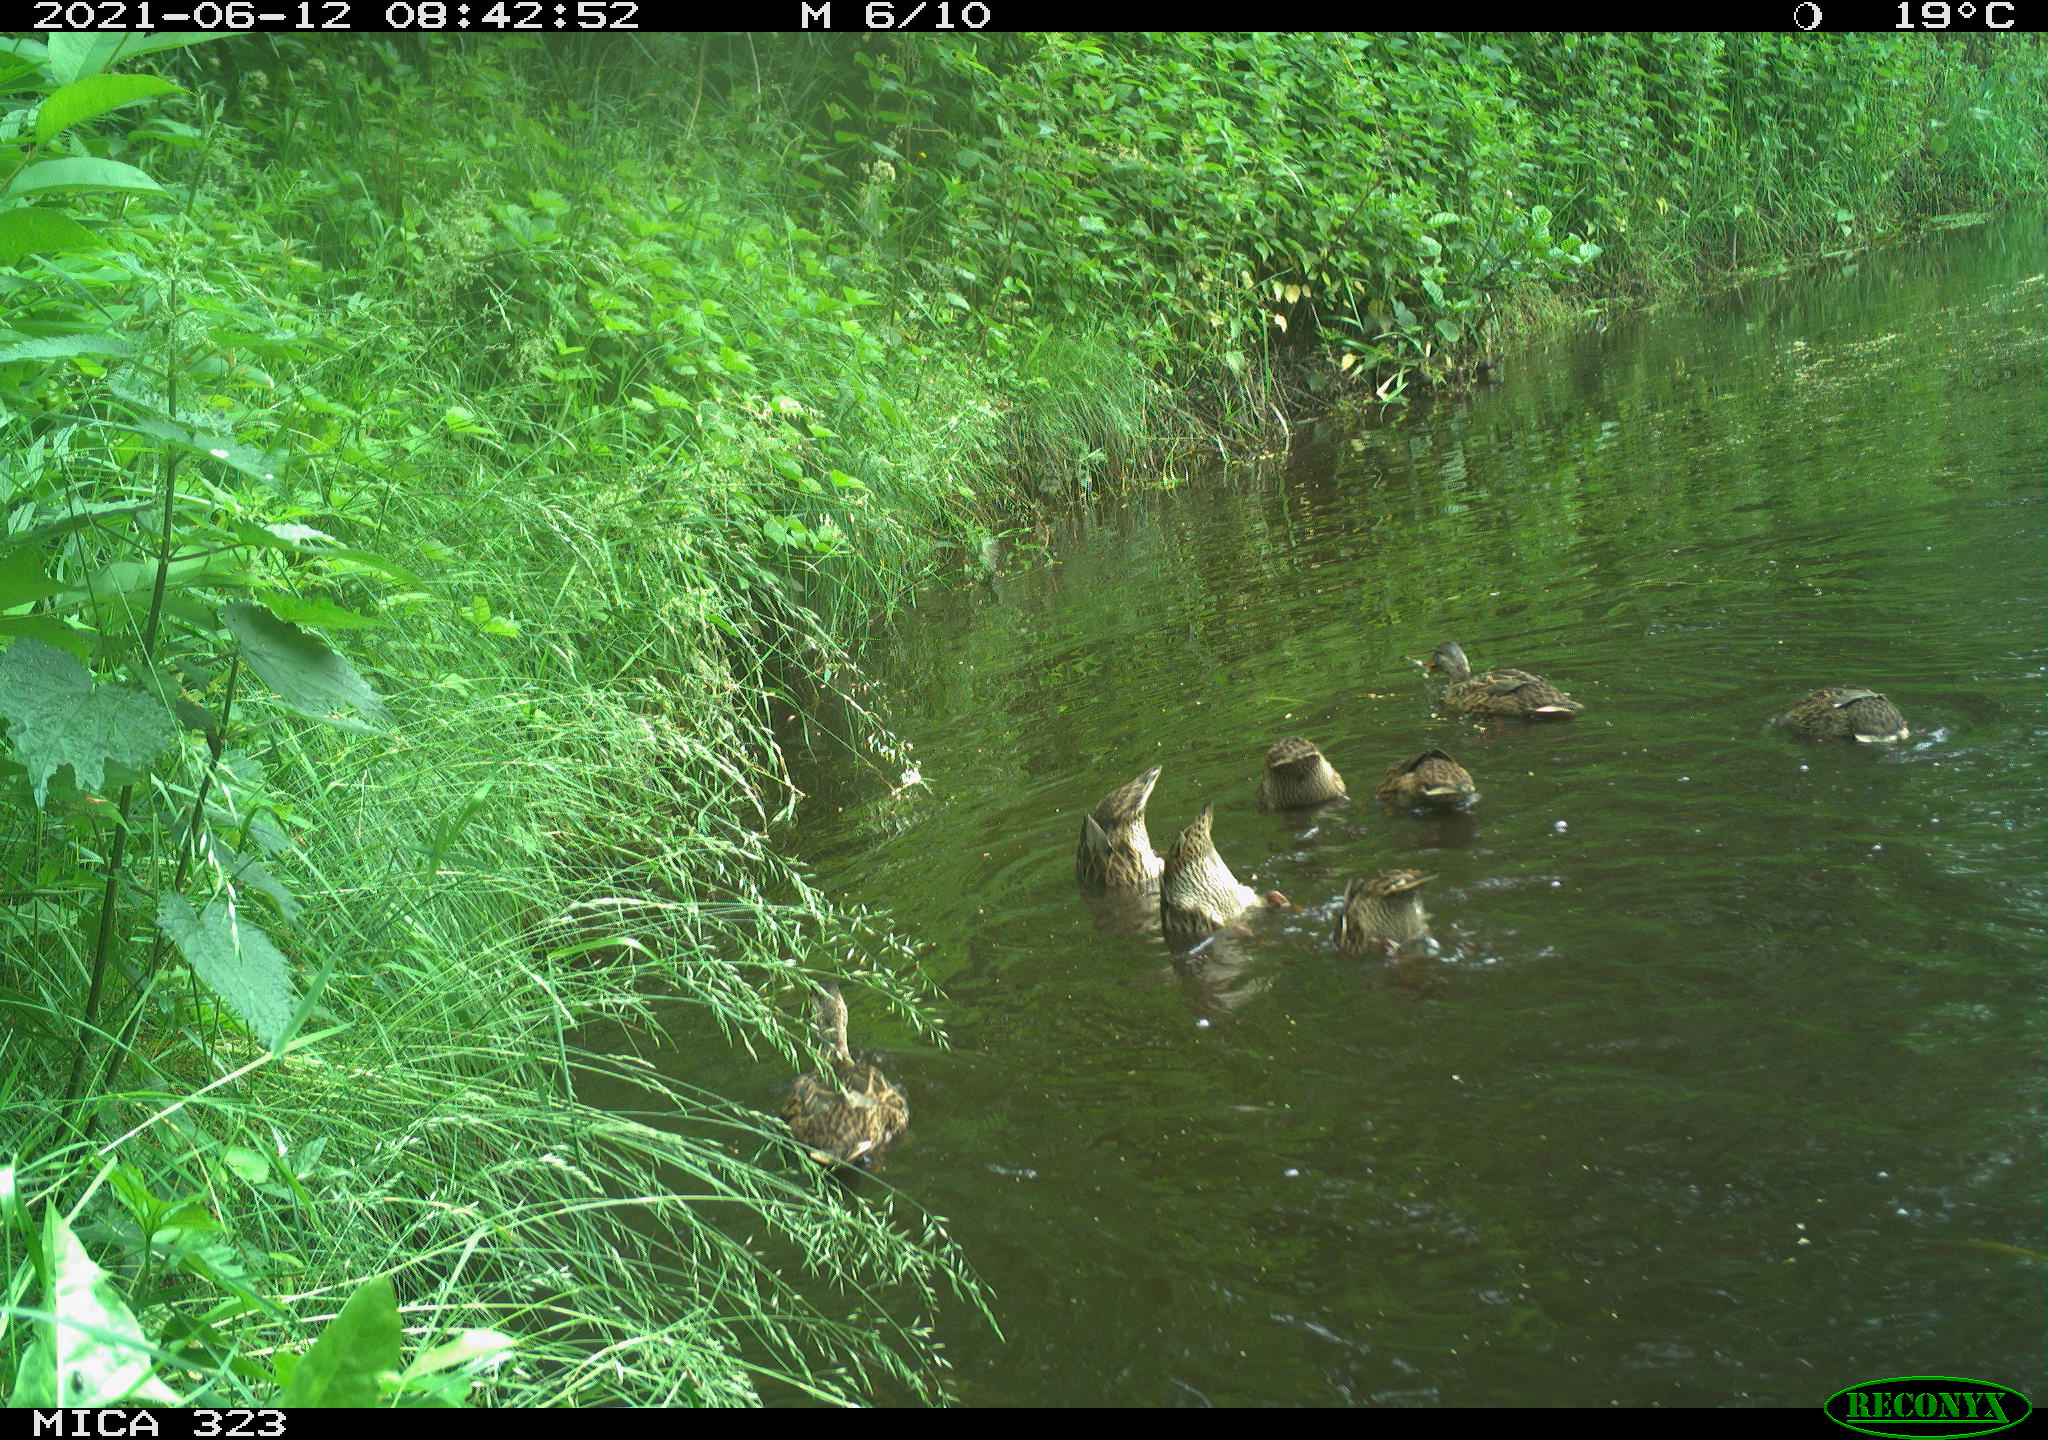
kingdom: Animalia
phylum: Chordata
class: Aves
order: Anseriformes
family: Anatidae
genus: Anas
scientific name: Anas platyrhynchos
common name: Mallard
